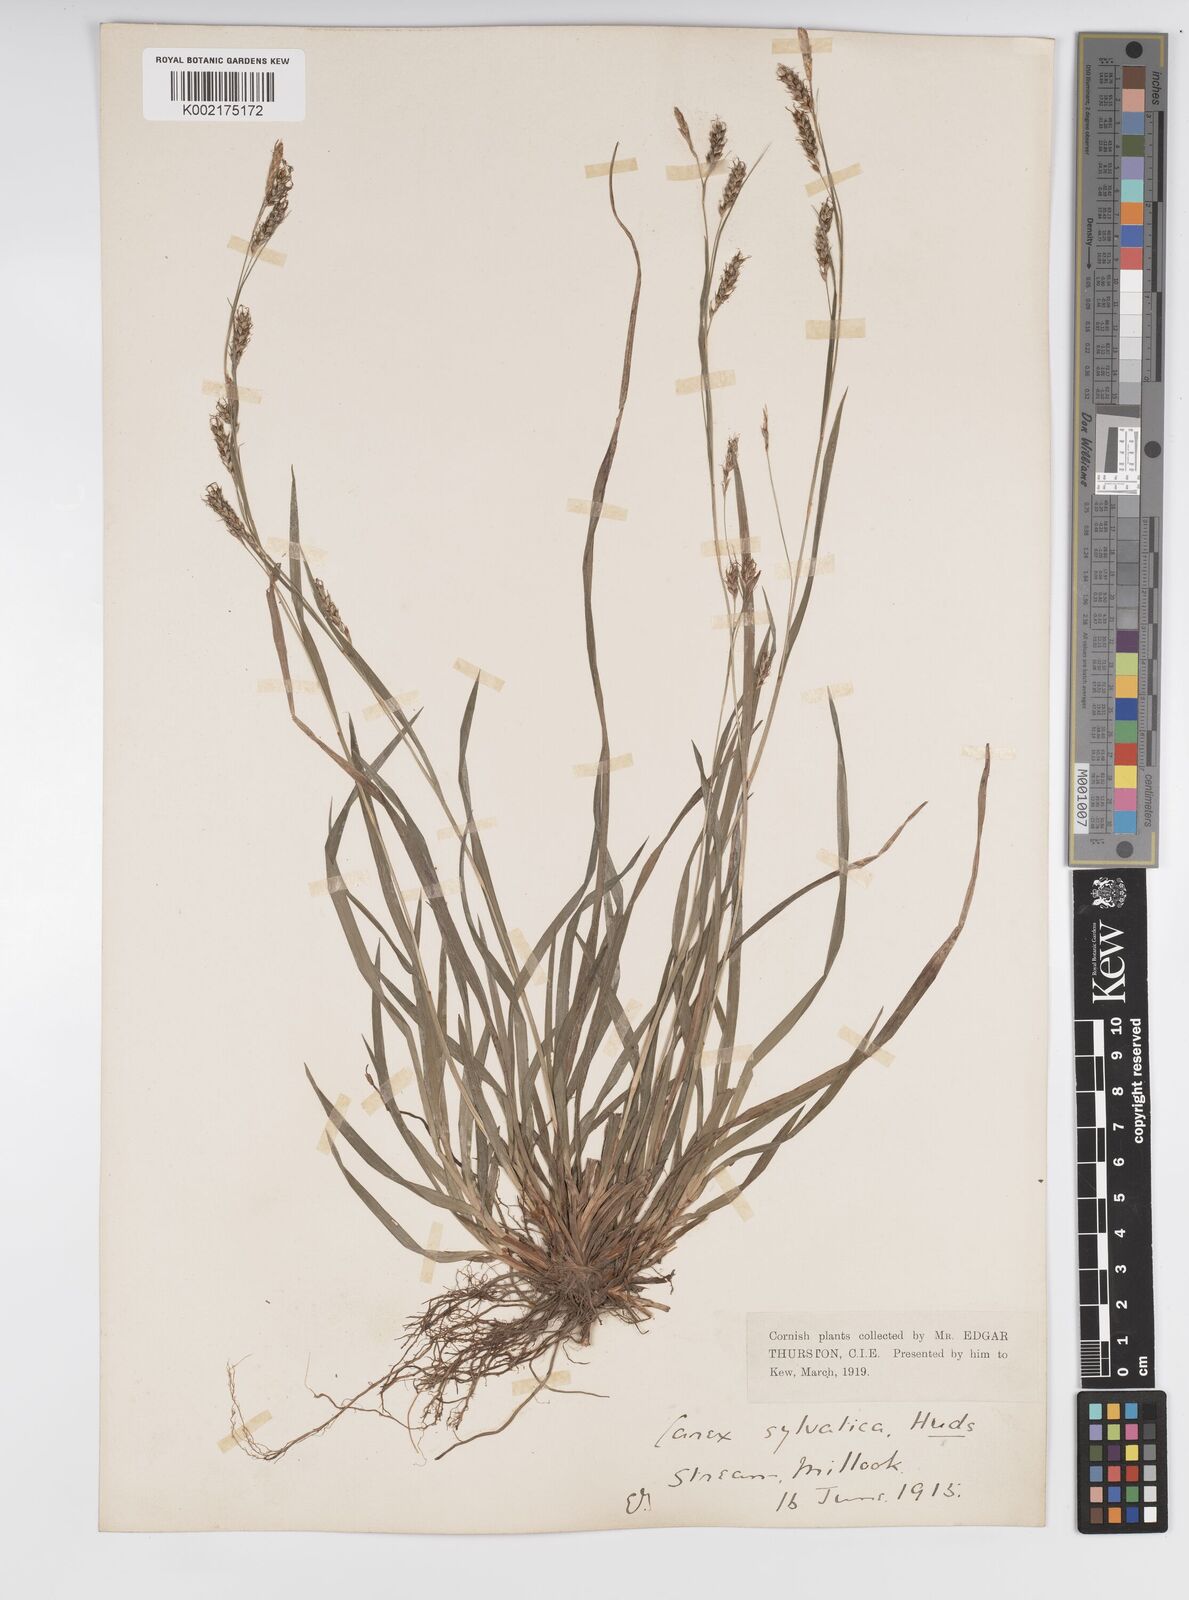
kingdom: Plantae
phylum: Tracheophyta
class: Liliopsida
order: Poales
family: Cyperaceae
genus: Carex
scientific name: Carex sylvatica
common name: Wood-sedge
